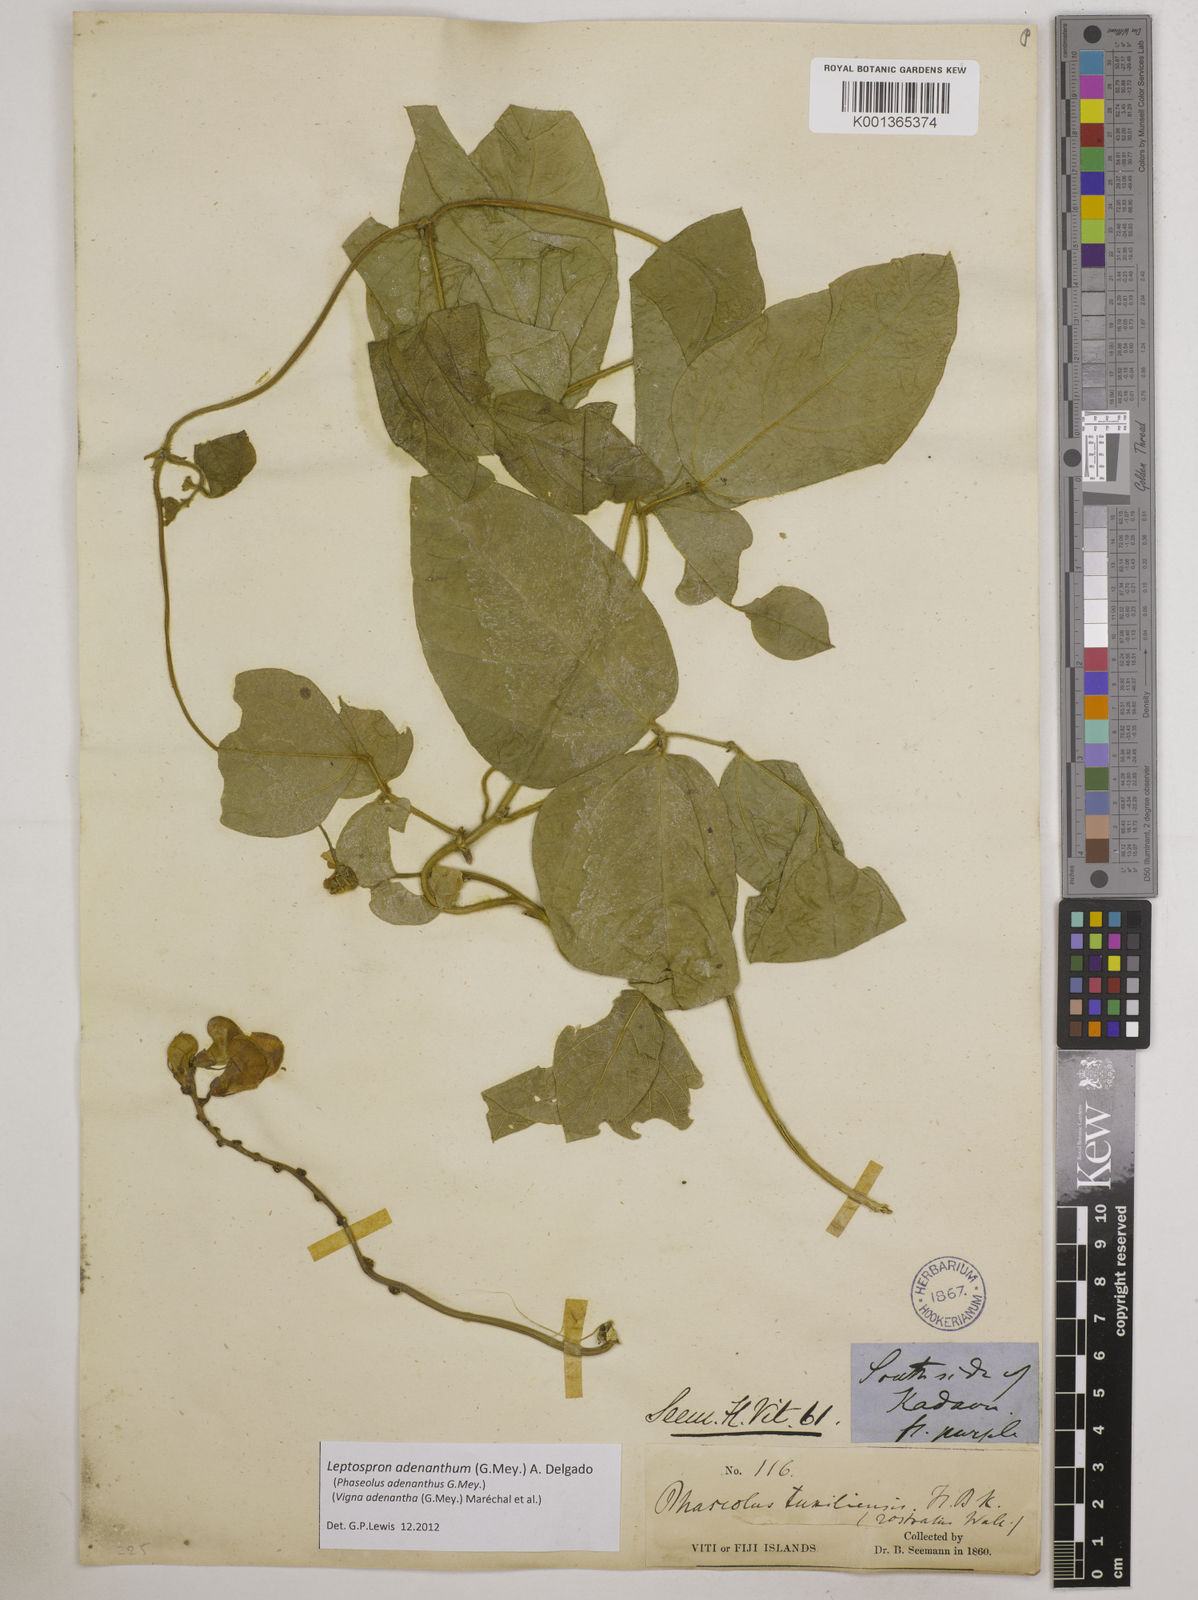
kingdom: Plantae
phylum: Tracheophyta
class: Magnoliopsida
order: Fabales
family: Fabaceae
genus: Leptospron
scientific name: Leptospron adenanthum
